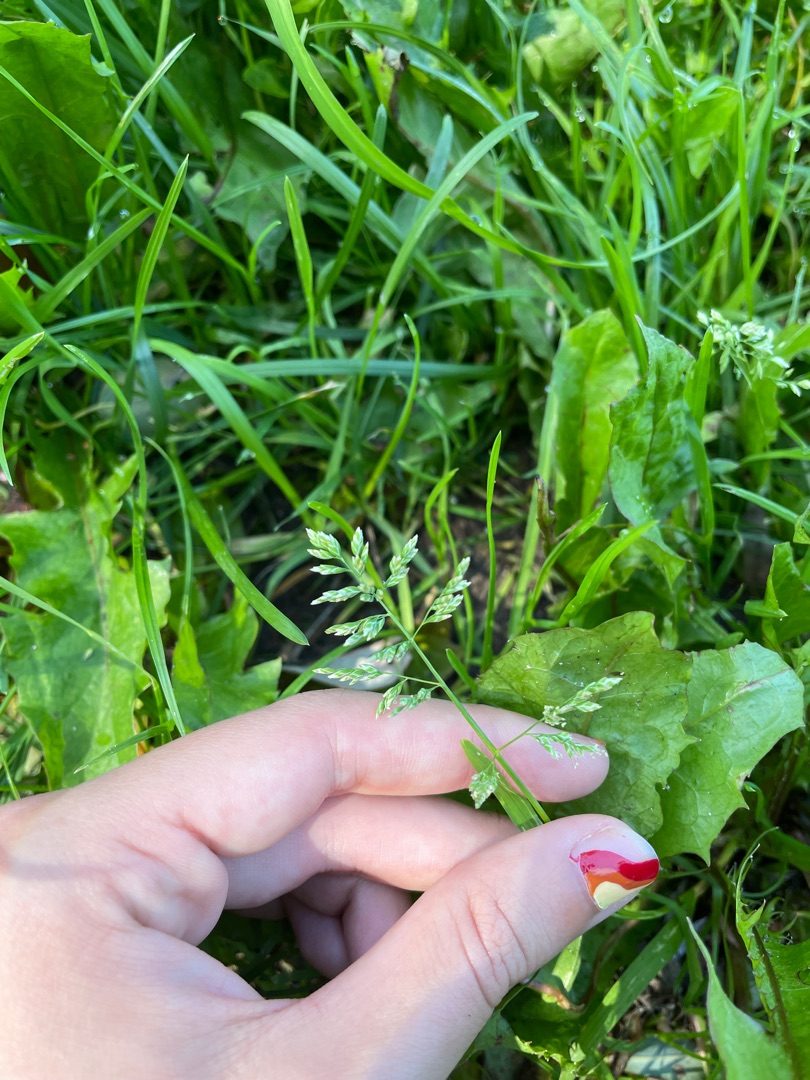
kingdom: Plantae
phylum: Tracheophyta
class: Liliopsida
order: Poales
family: Poaceae
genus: Poa
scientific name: Poa annua
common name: Enårig rapgræs
